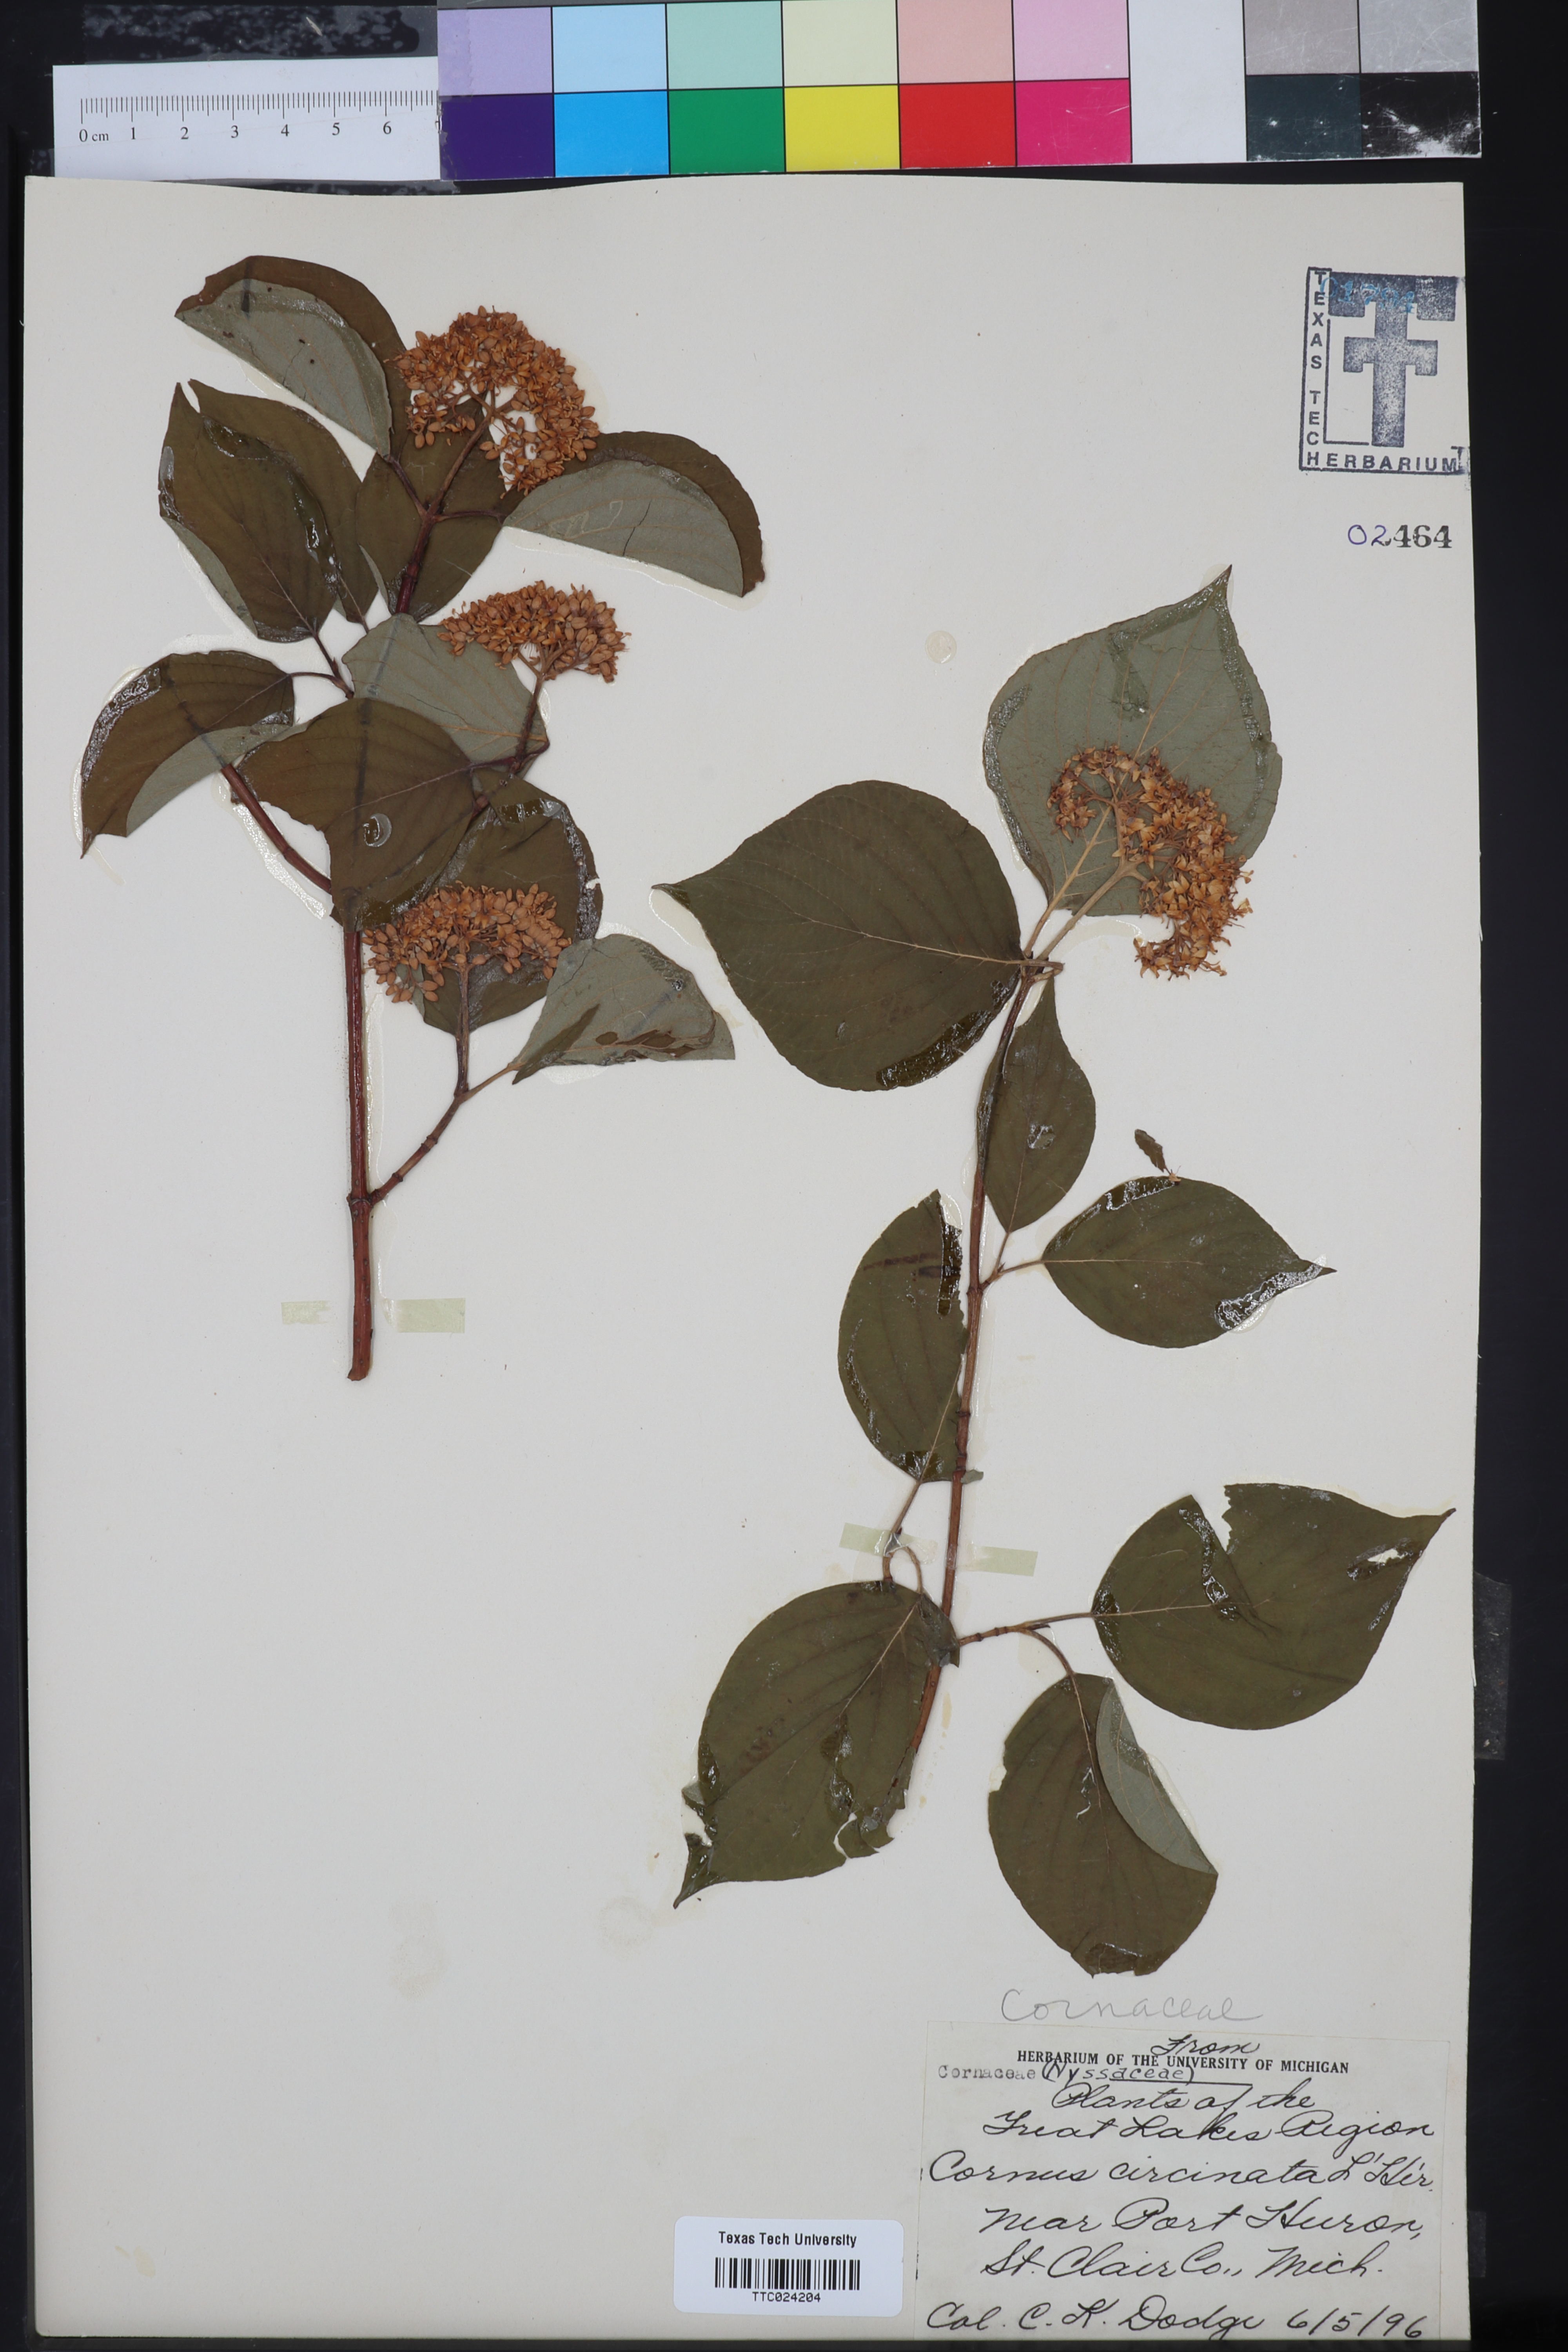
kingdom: Plantae
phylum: Tracheophyta
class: Magnoliopsida
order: Cornales
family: Cornaceae
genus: Cornus
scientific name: Cornus rugosa
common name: Round-leaf dogwood
